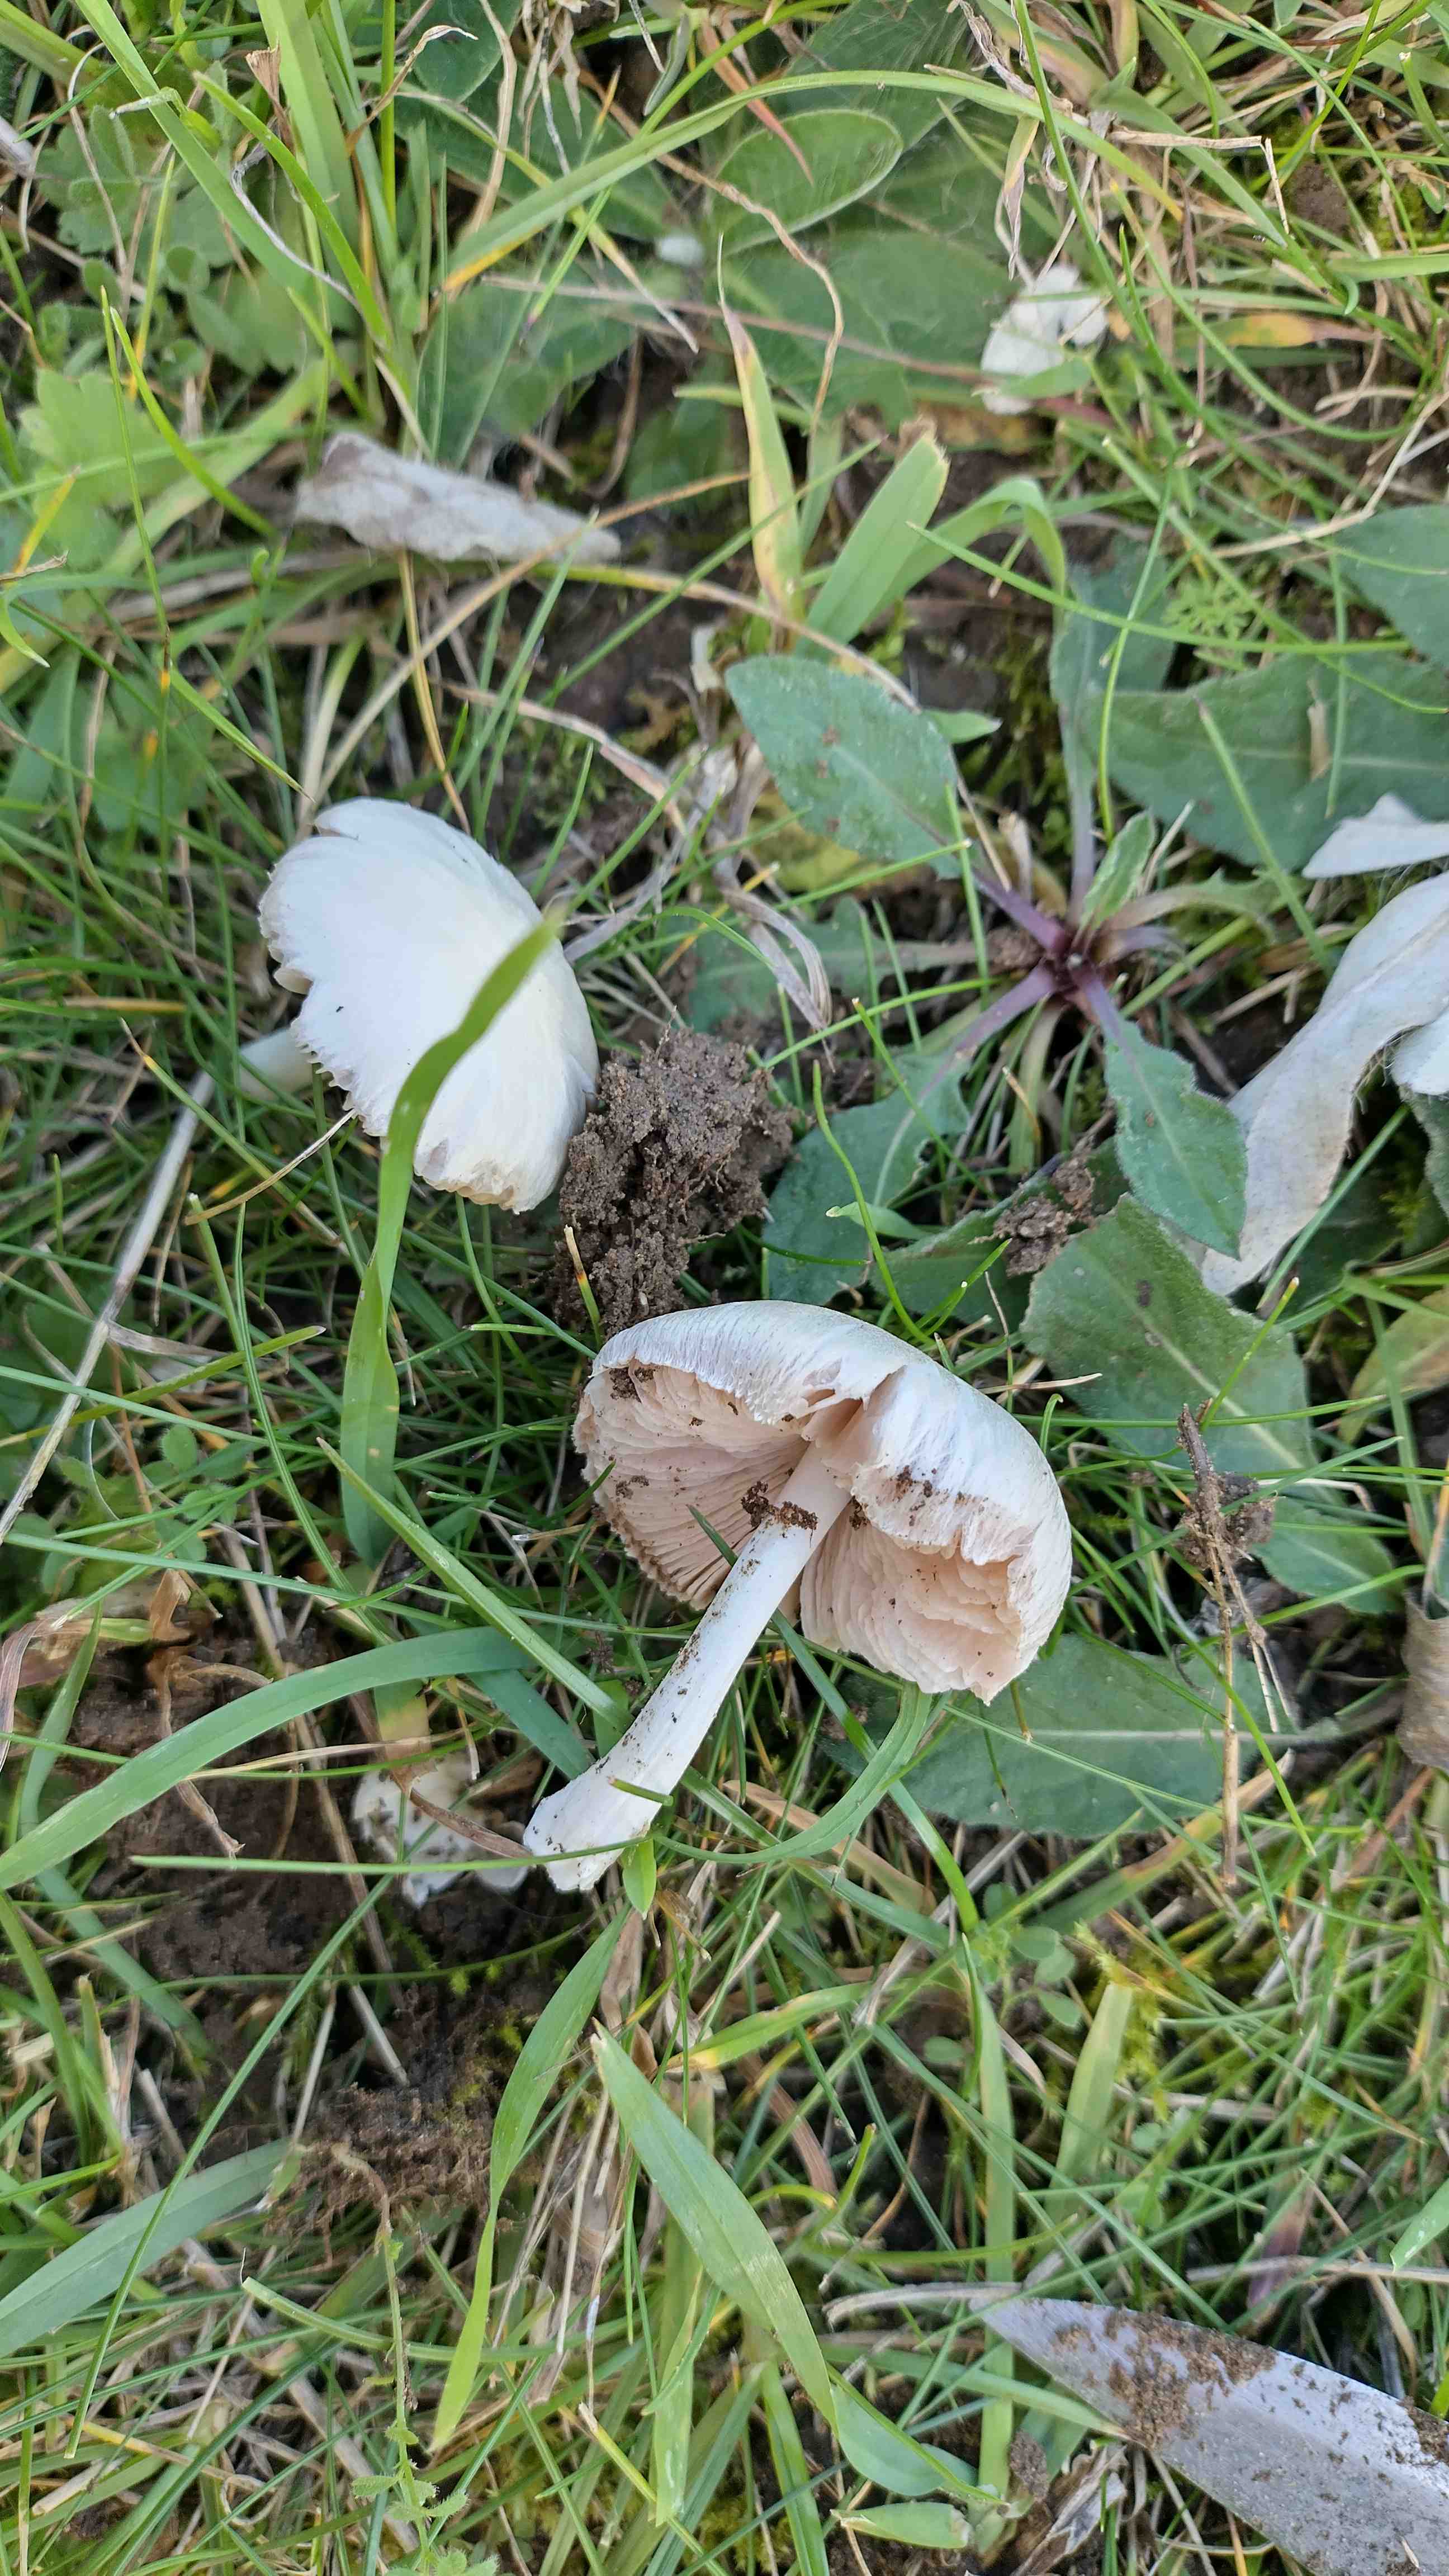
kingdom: Fungi
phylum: Basidiomycota
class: Agaricomycetes
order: Agaricales
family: Pluteaceae
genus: Volvariella
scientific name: Volvariella pusilla
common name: liden posesvamp
